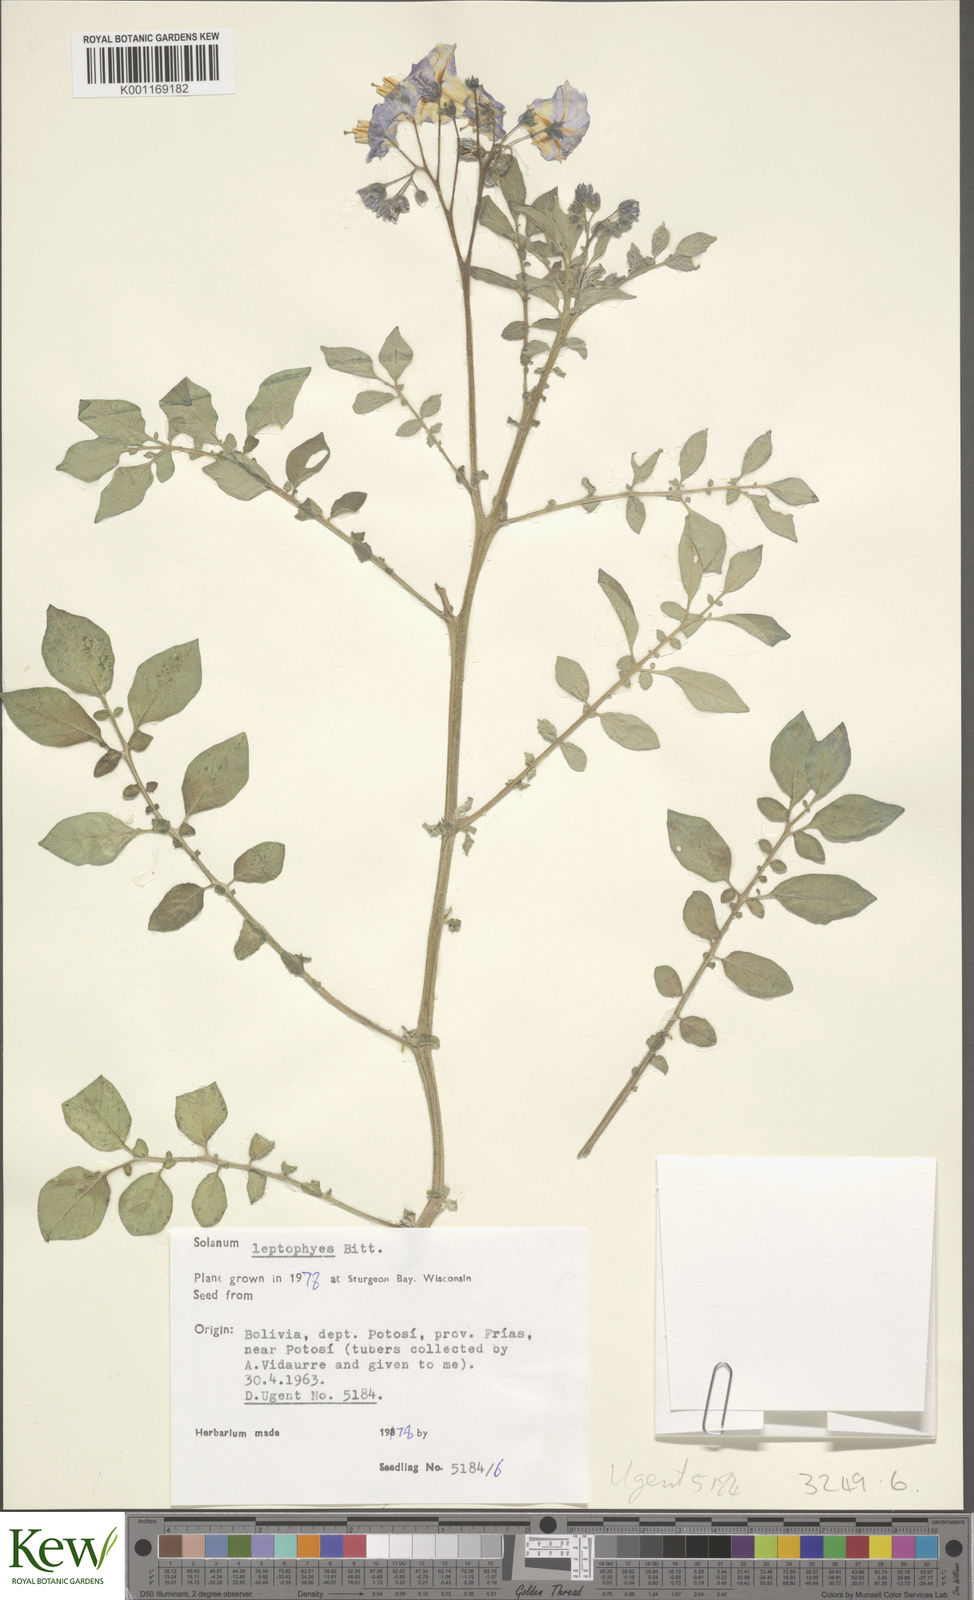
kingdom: Plantae
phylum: Tracheophyta
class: Magnoliopsida
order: Solanales
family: Solanaceae
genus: Solanum
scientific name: Solanum brevicaule
